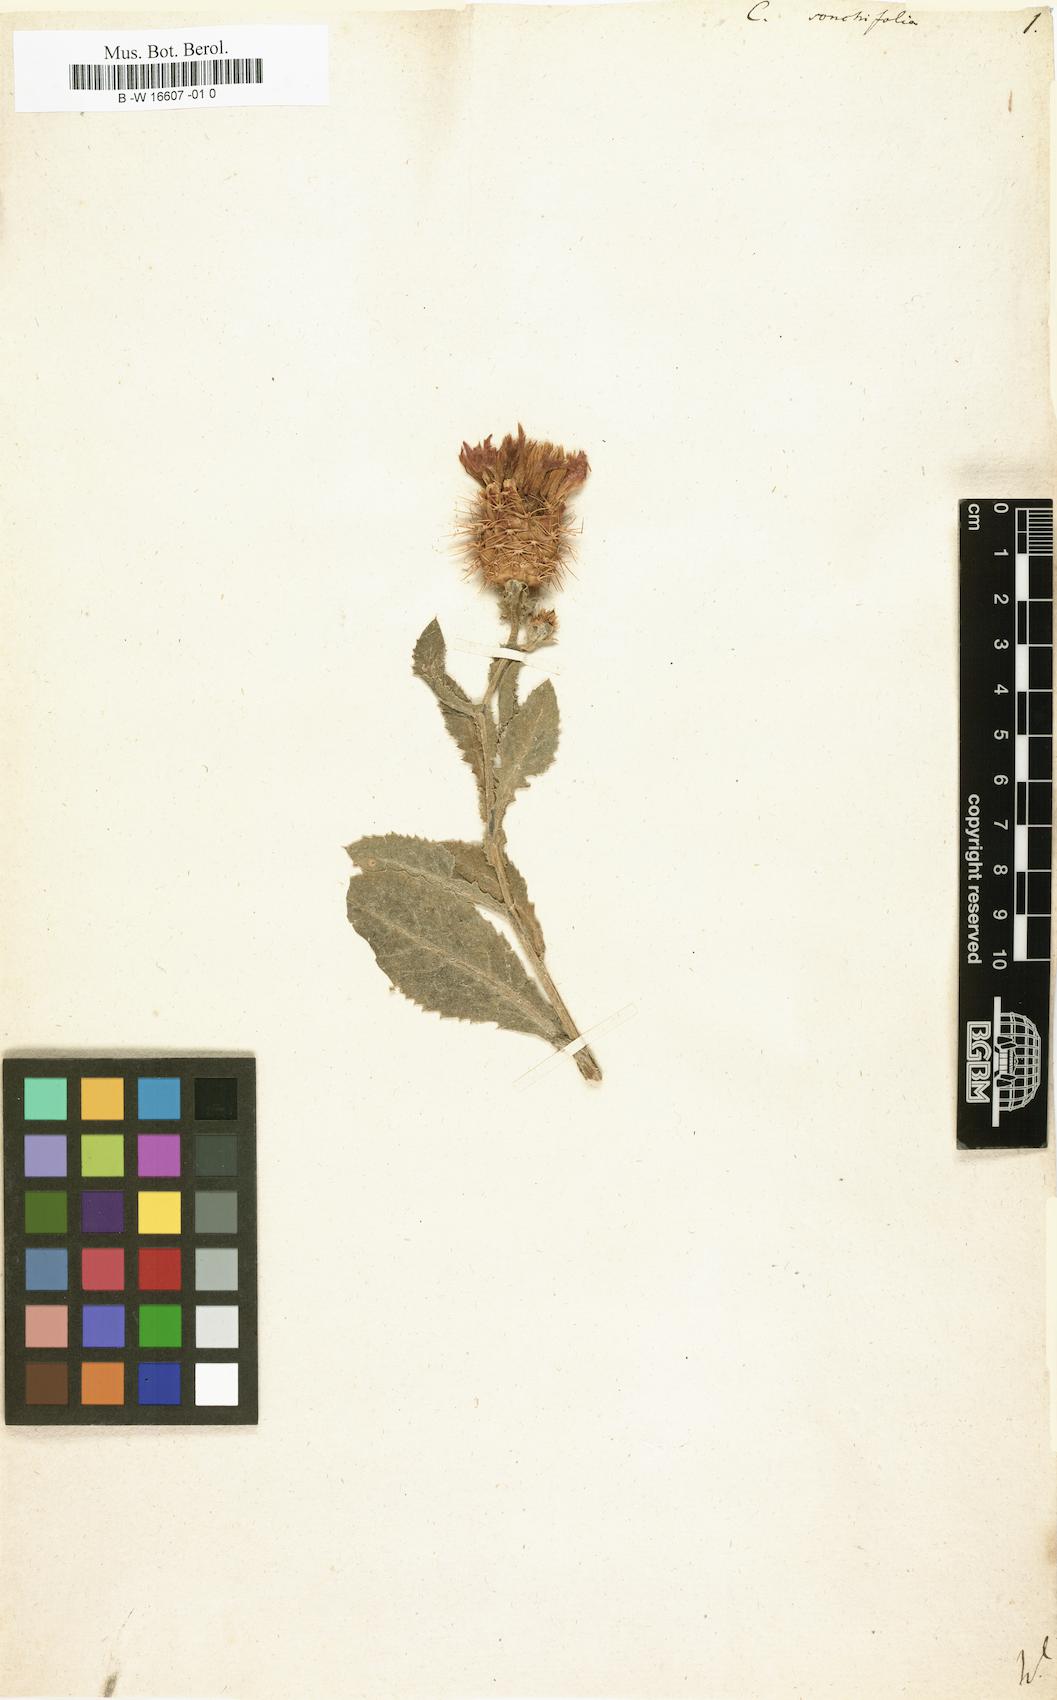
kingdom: Plantae
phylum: Tracheophyta
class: Magnoliopsida
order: Asterales
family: Asteraceae
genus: Centaurea
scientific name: Centaurea seridis
